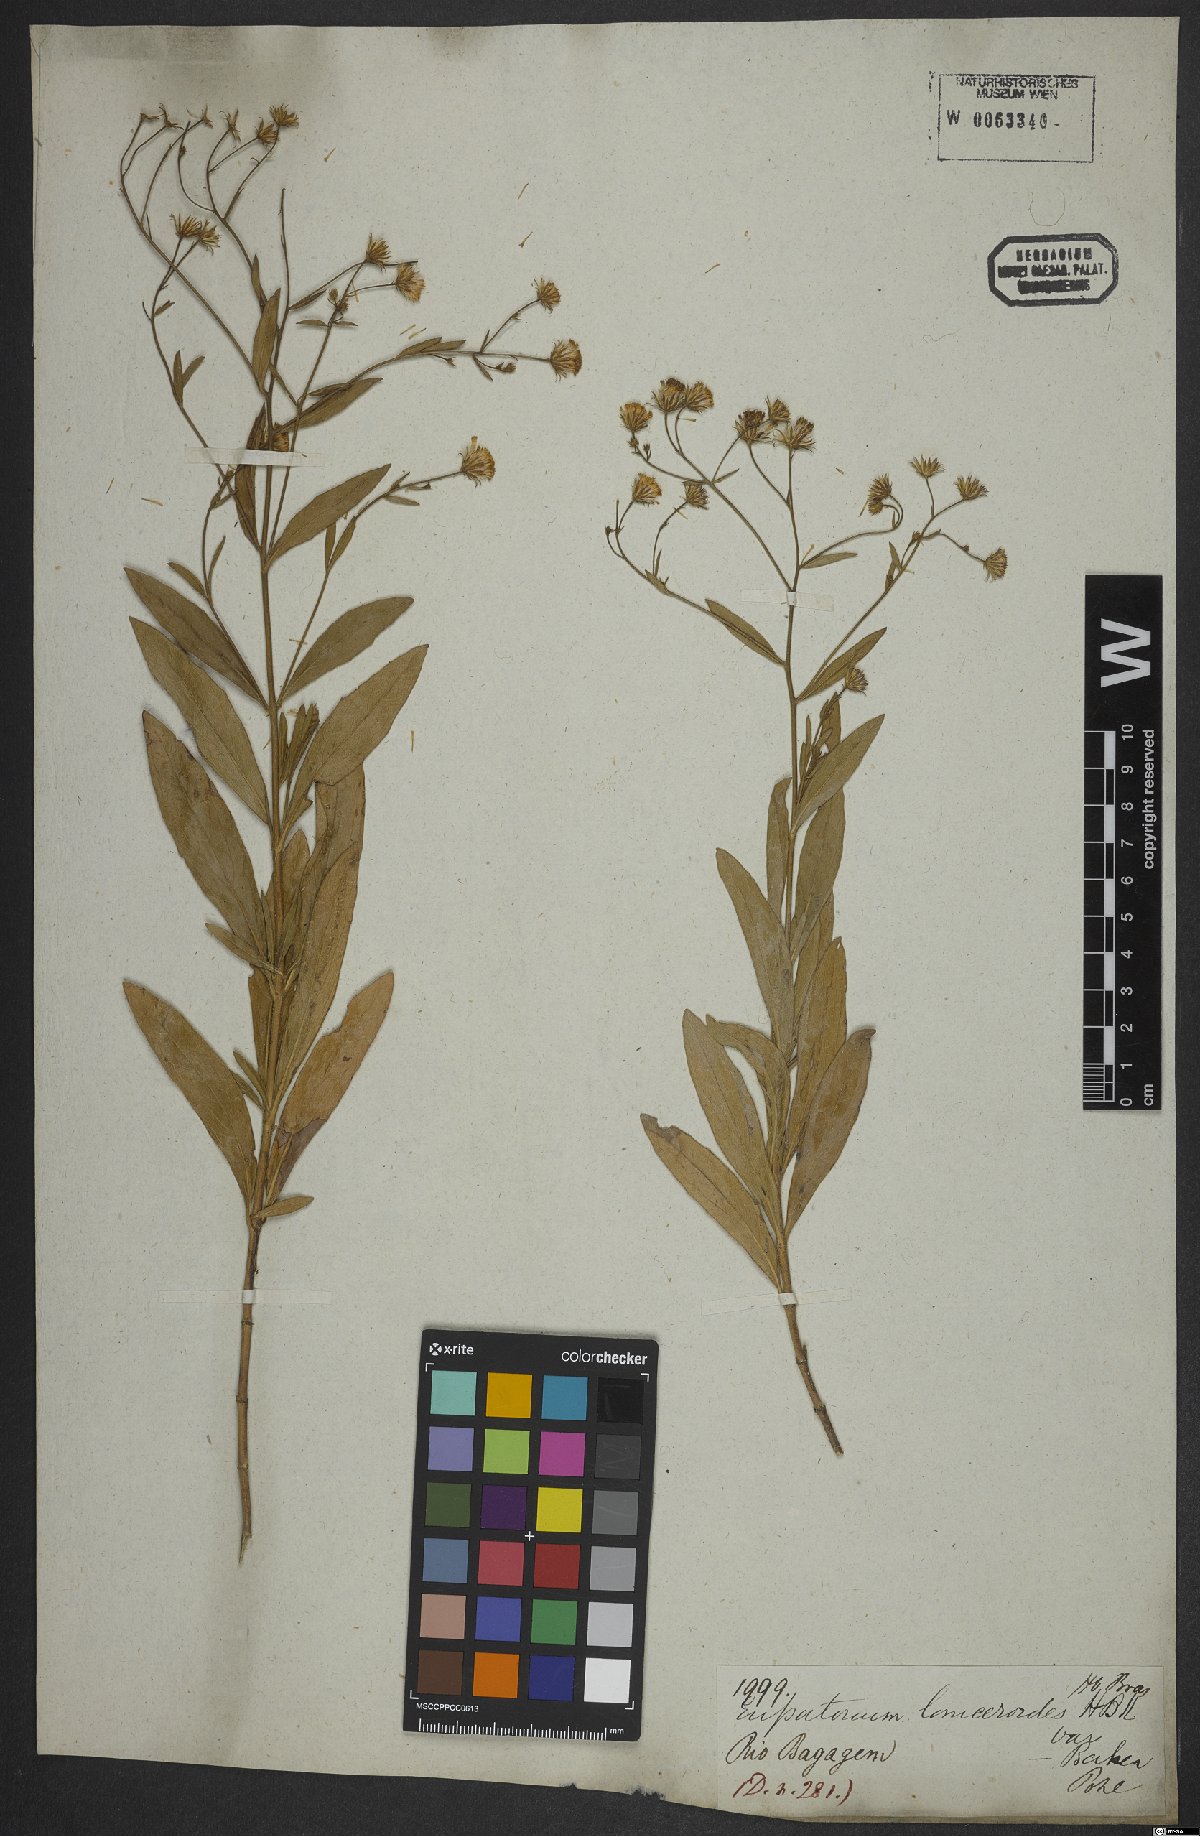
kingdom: Plantae
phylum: Tracheophyta
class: Magnoliopsida
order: Asterales
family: Asteraceae
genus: Ayapana
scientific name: Ayapana amygdalina
